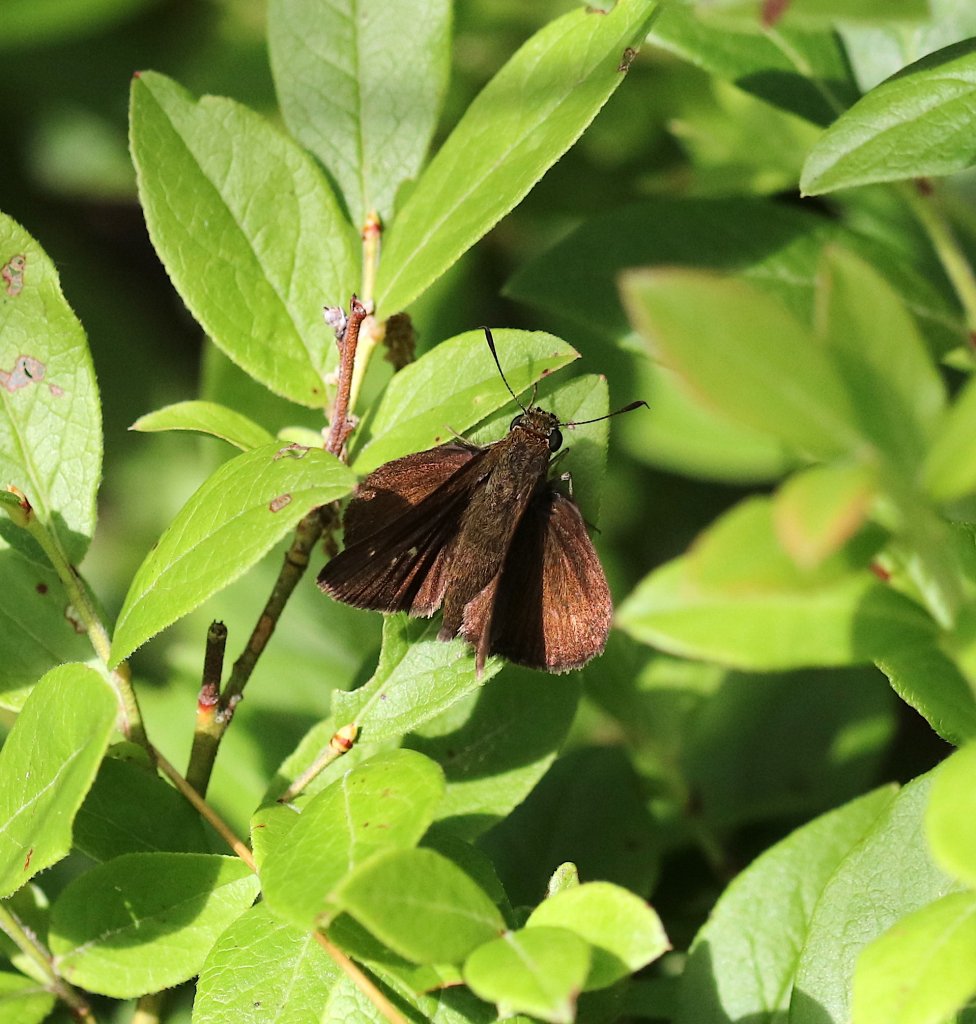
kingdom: Animalia
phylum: Arthropoda
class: Insecta
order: Lepidoptera
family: Hesperiidae
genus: Euphyes
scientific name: Euphyes vestris
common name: Dun Skipper
